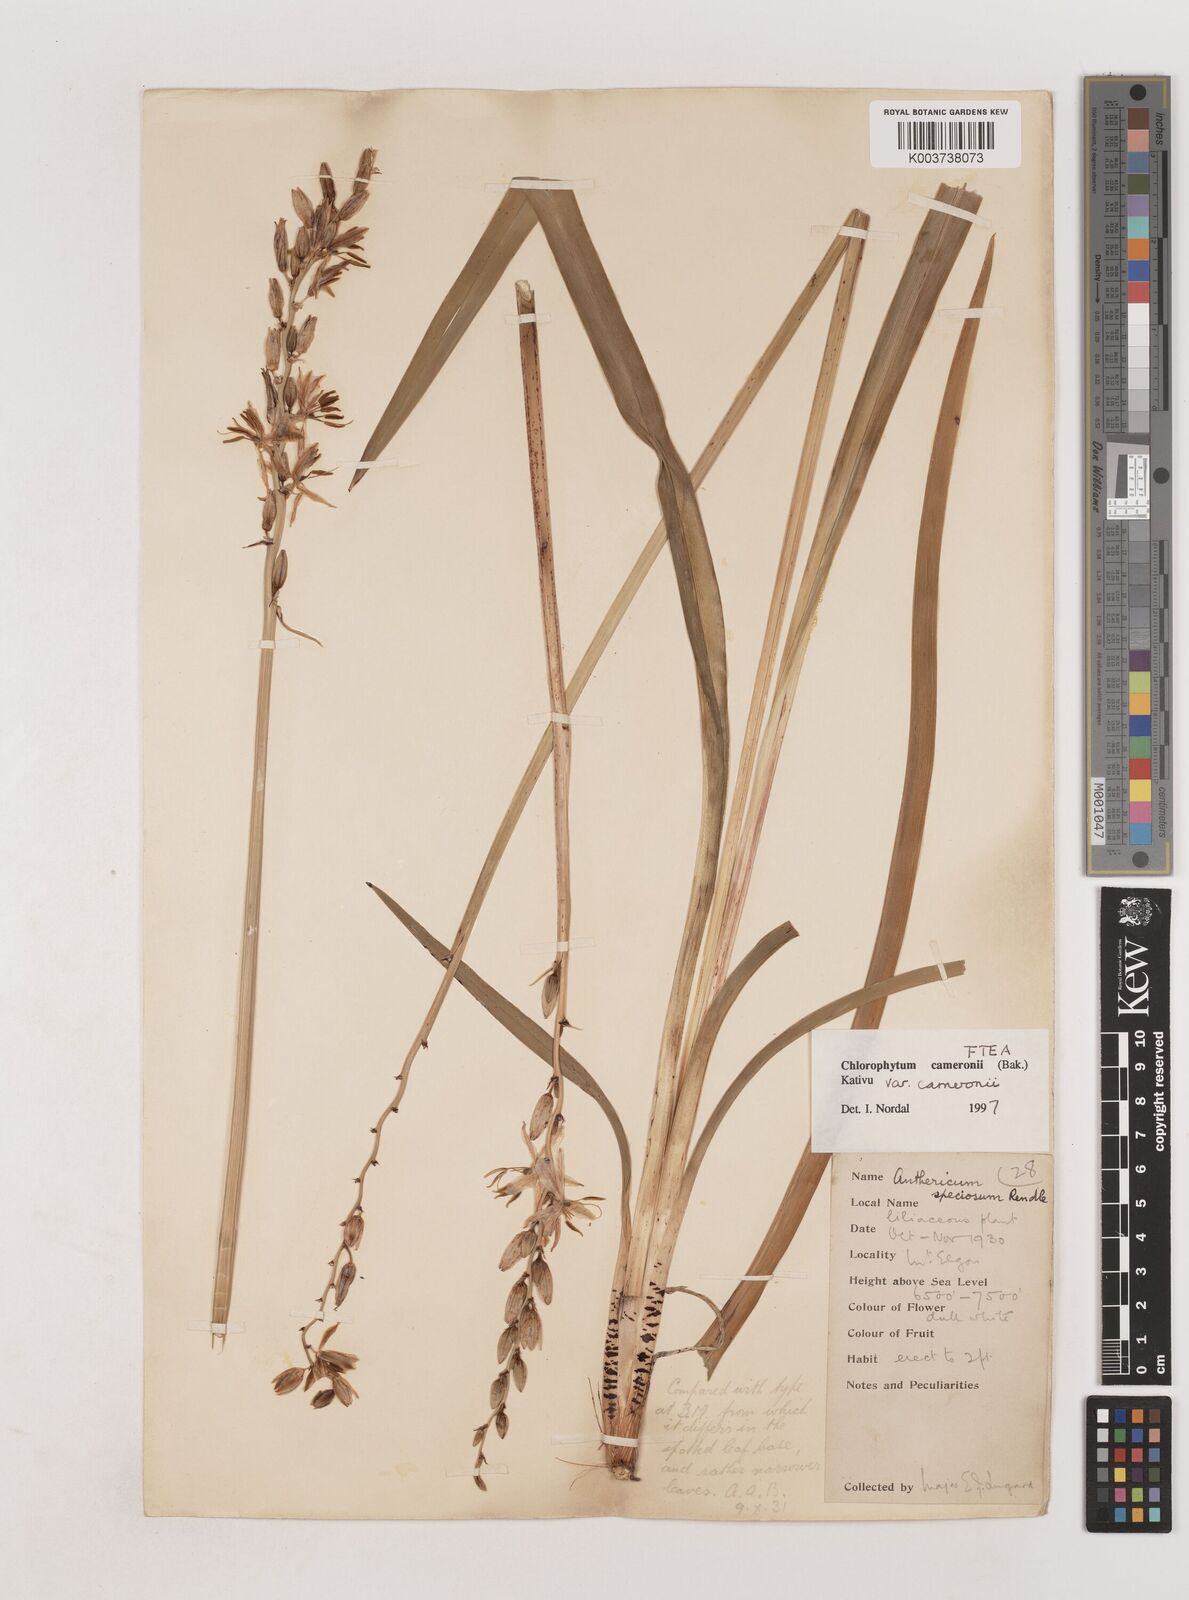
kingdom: Plantae
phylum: Tracheophyta
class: Liliopsida
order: Asparagales
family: Asparagaceae
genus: Chlorophytum
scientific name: Chlorophytum cameronii
